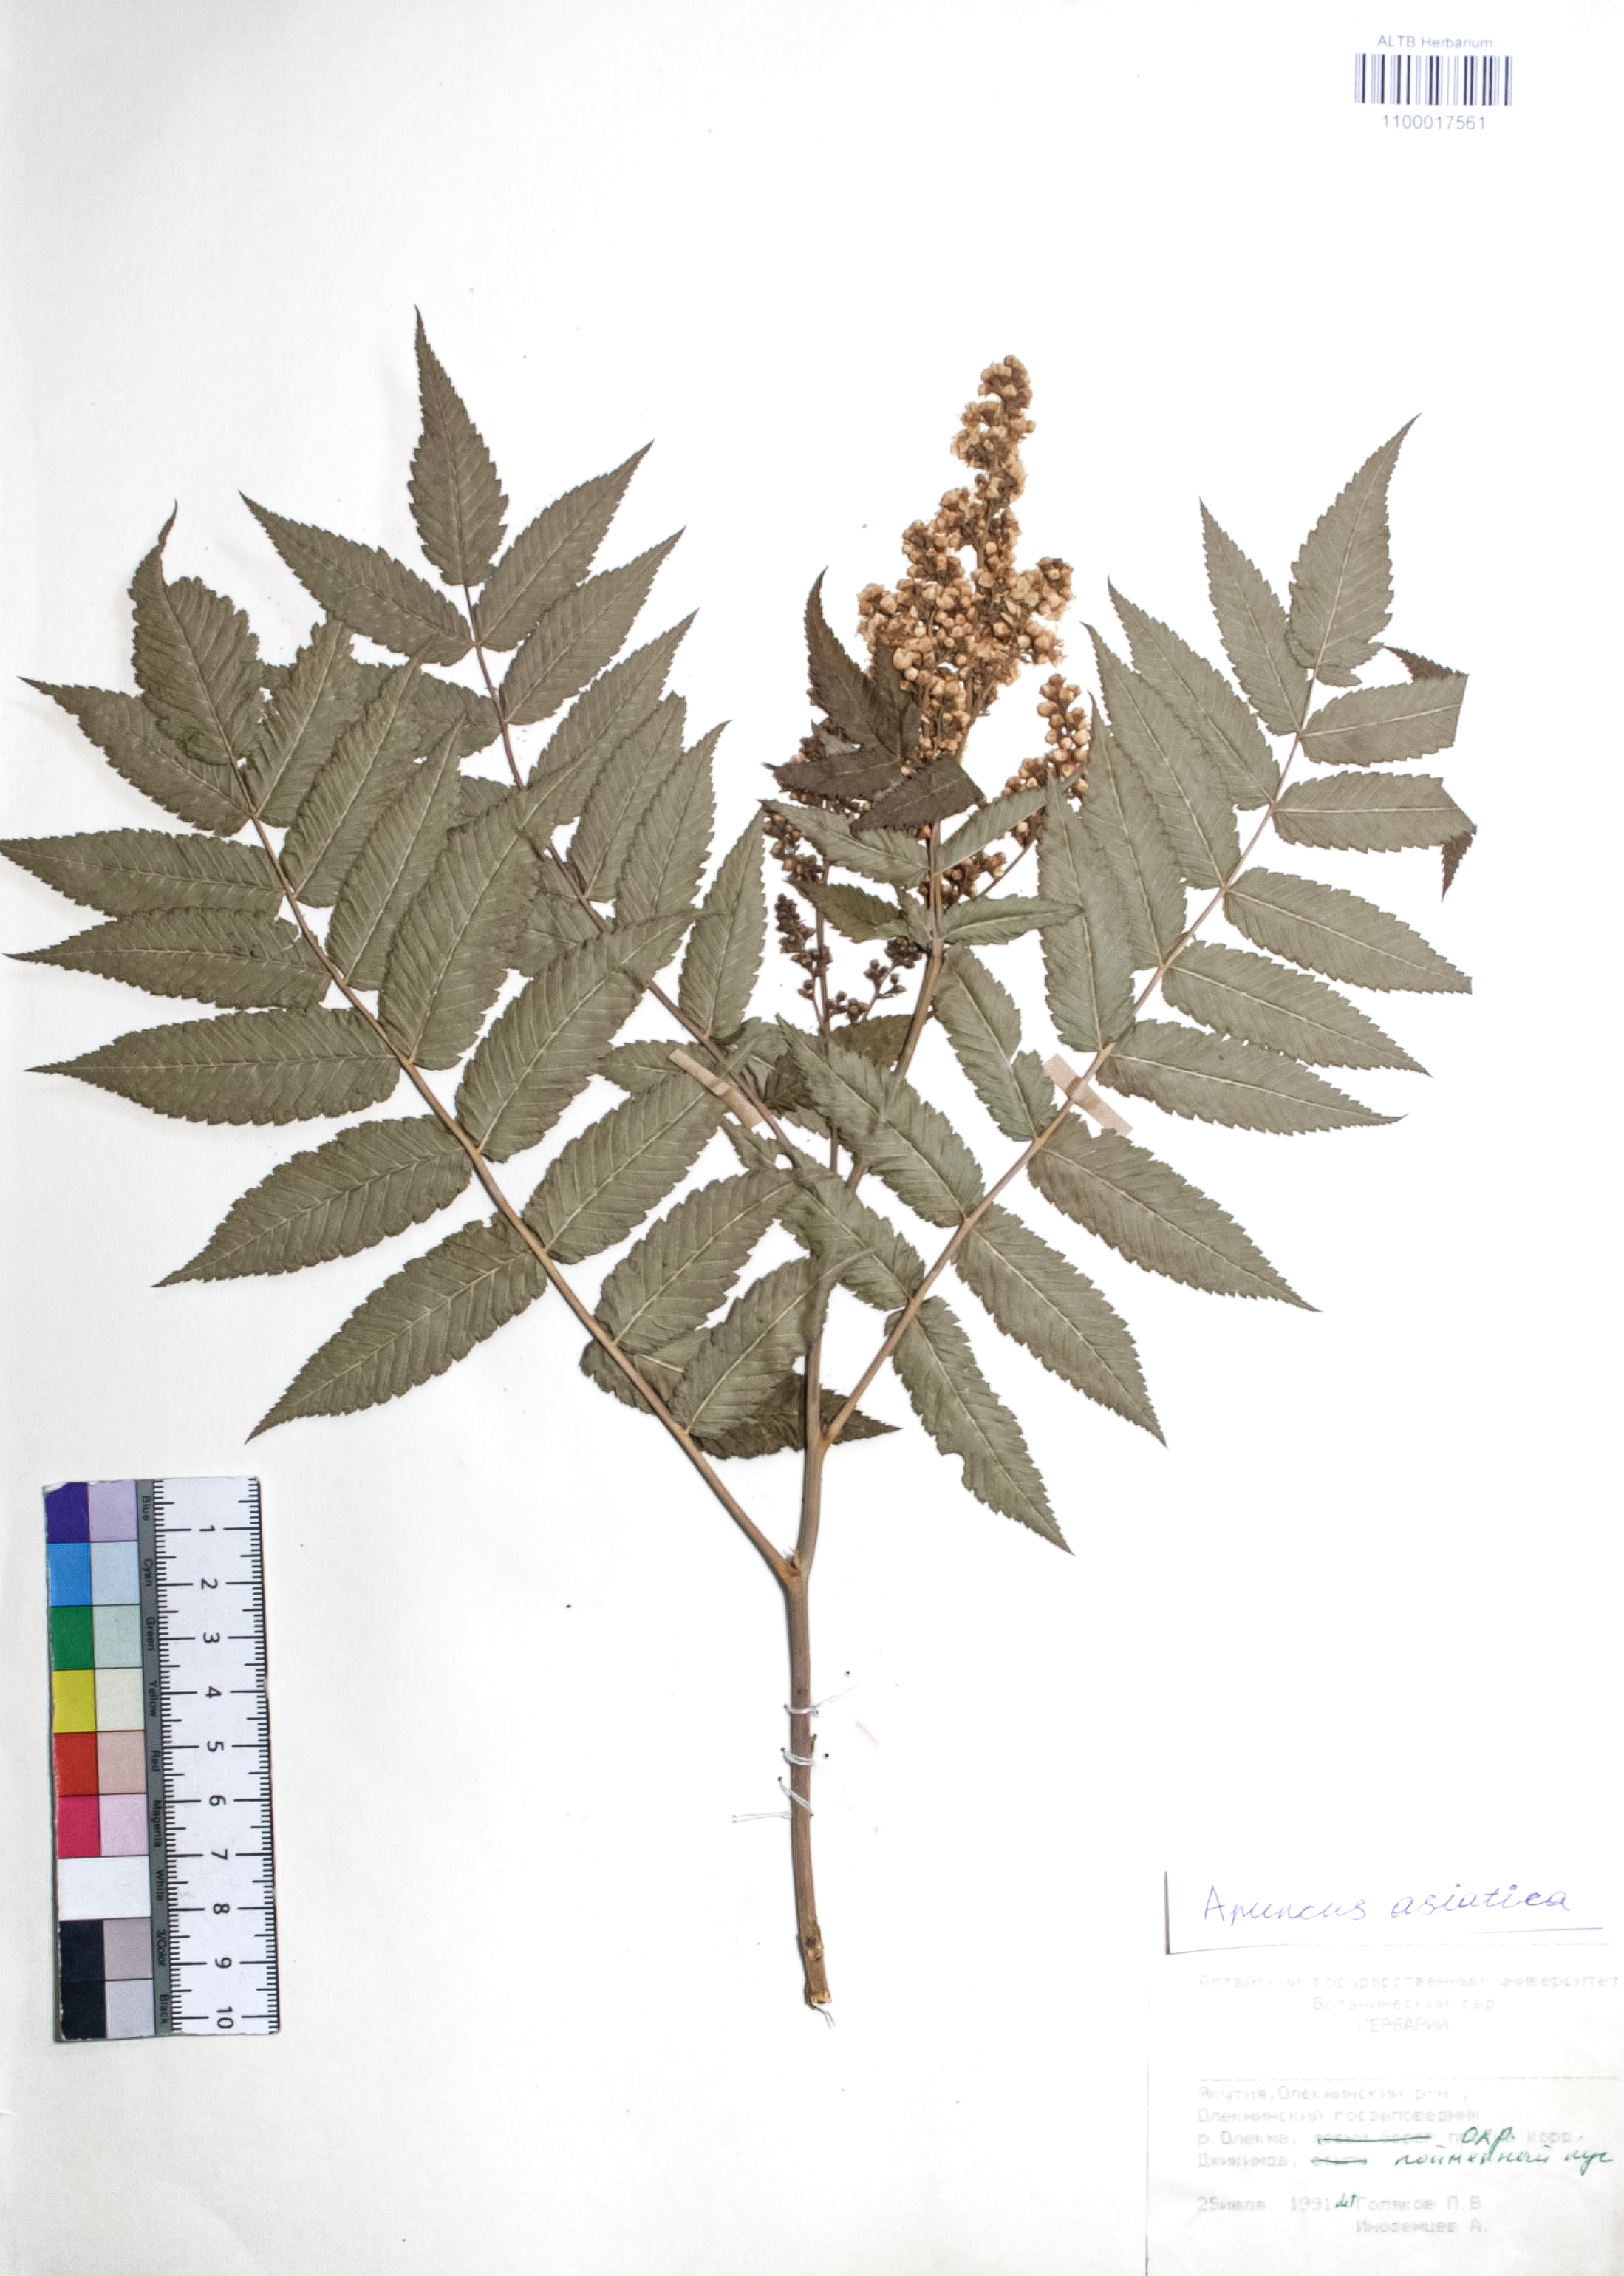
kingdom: Plantae
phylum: Tracheophyta
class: Magnoliopsida
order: Rosales
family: Rosaceae
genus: Aruncus
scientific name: Aruncus sylvester
